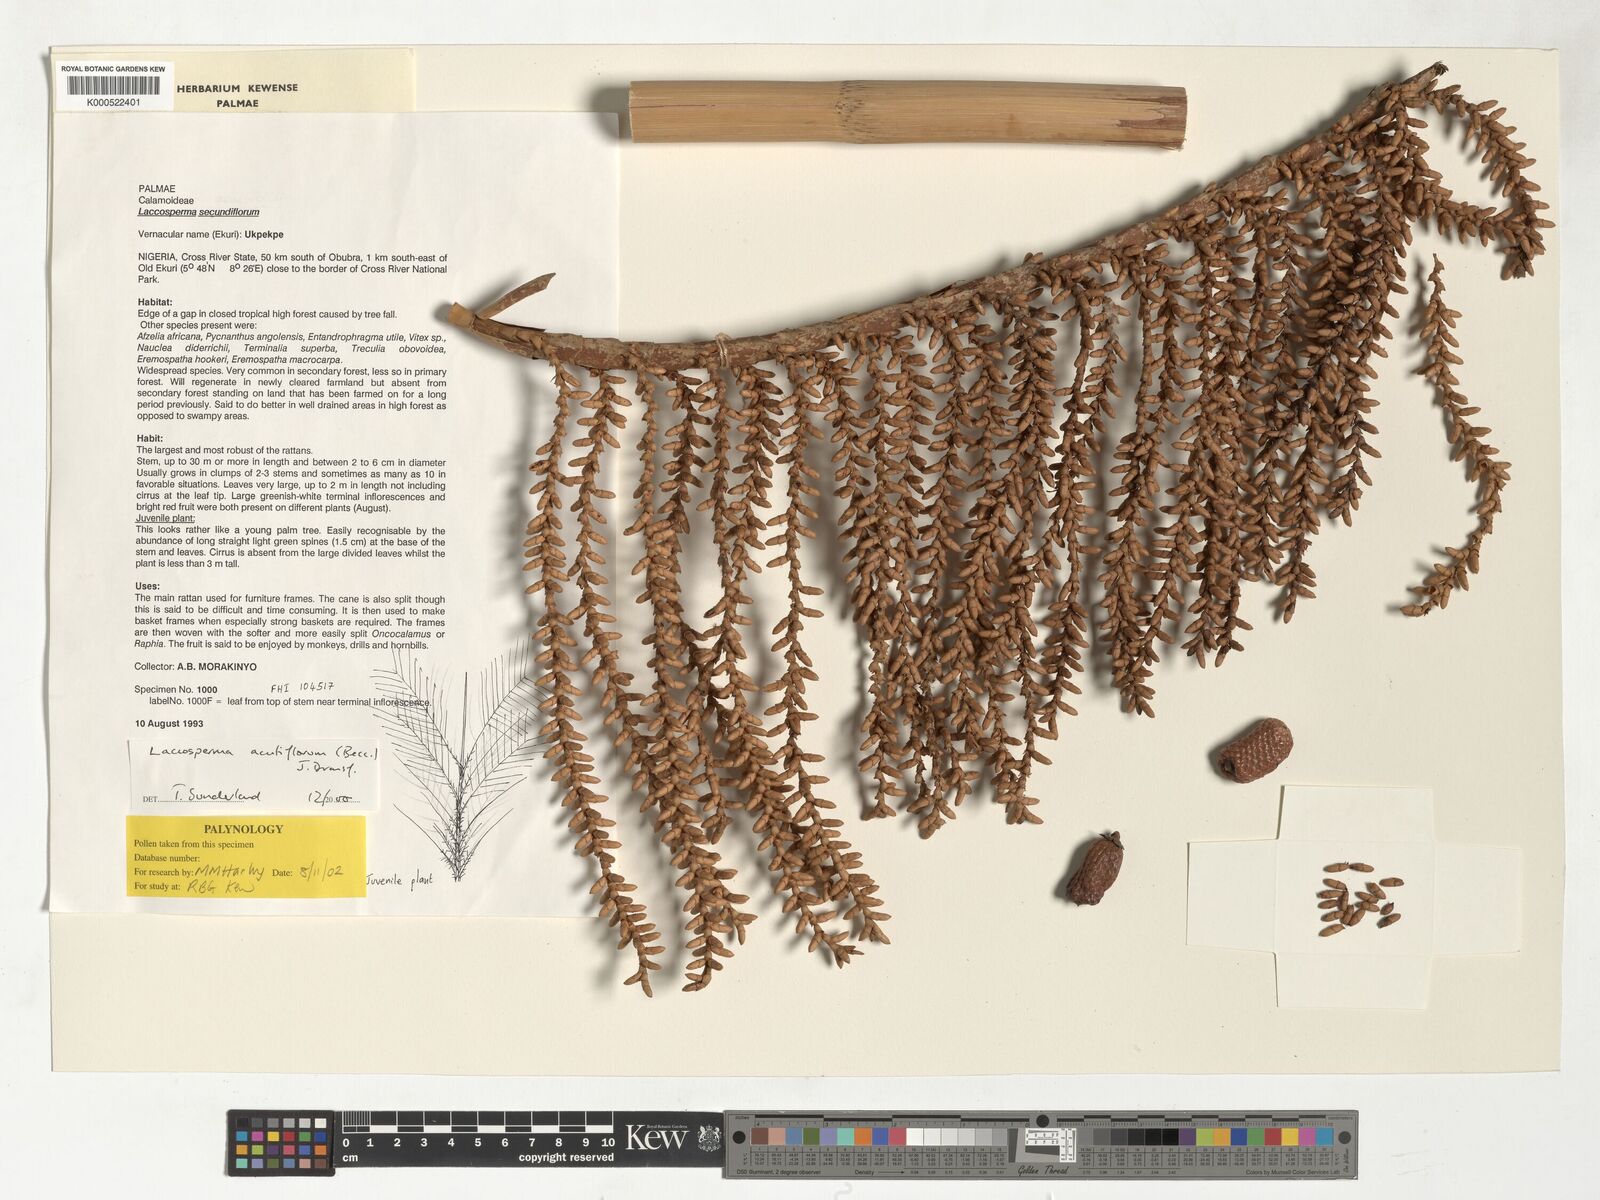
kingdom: Plantae
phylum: Tracheophyta
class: Liliopsida
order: Arecales
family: Arecaceae
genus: Laccosperma
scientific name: Laccosperma acutiflorum
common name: Rattan
